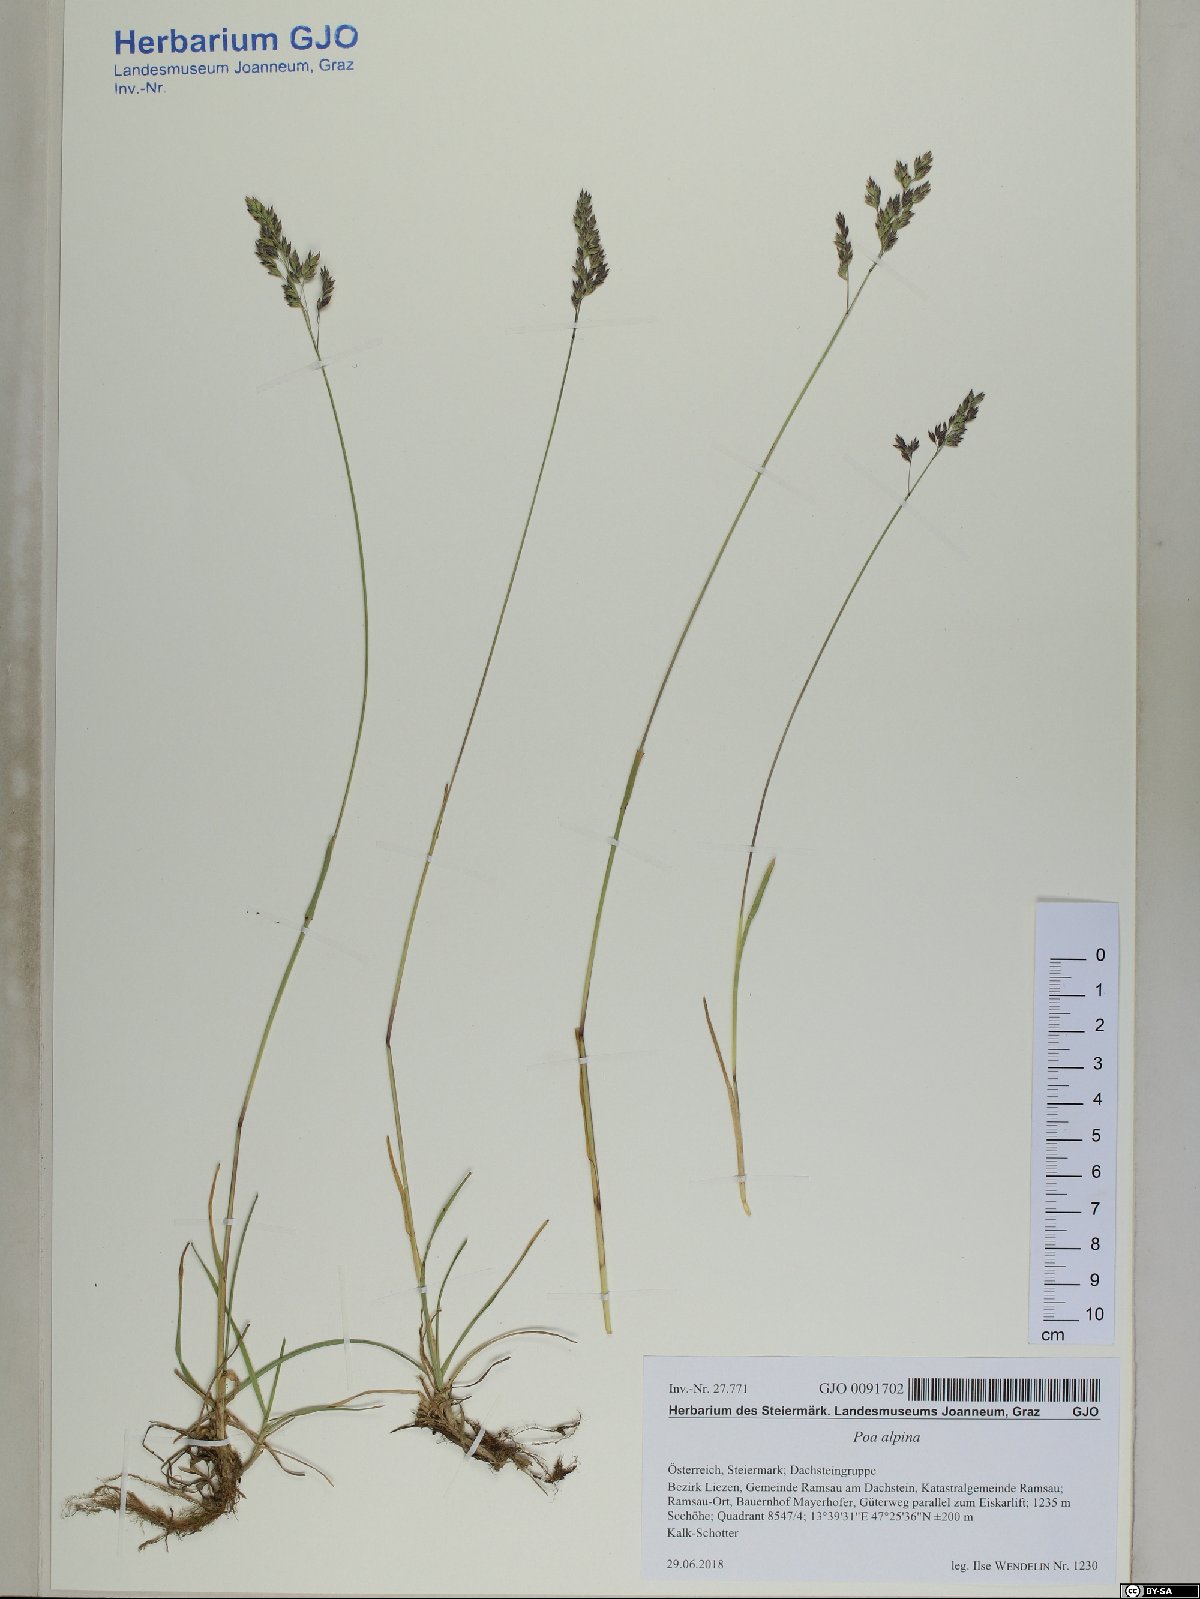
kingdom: Plantae
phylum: Tracheophyta
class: Liliopsida
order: Poales
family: Poaceae
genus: Poa
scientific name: Poa alpina
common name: Alpine bluegrass
